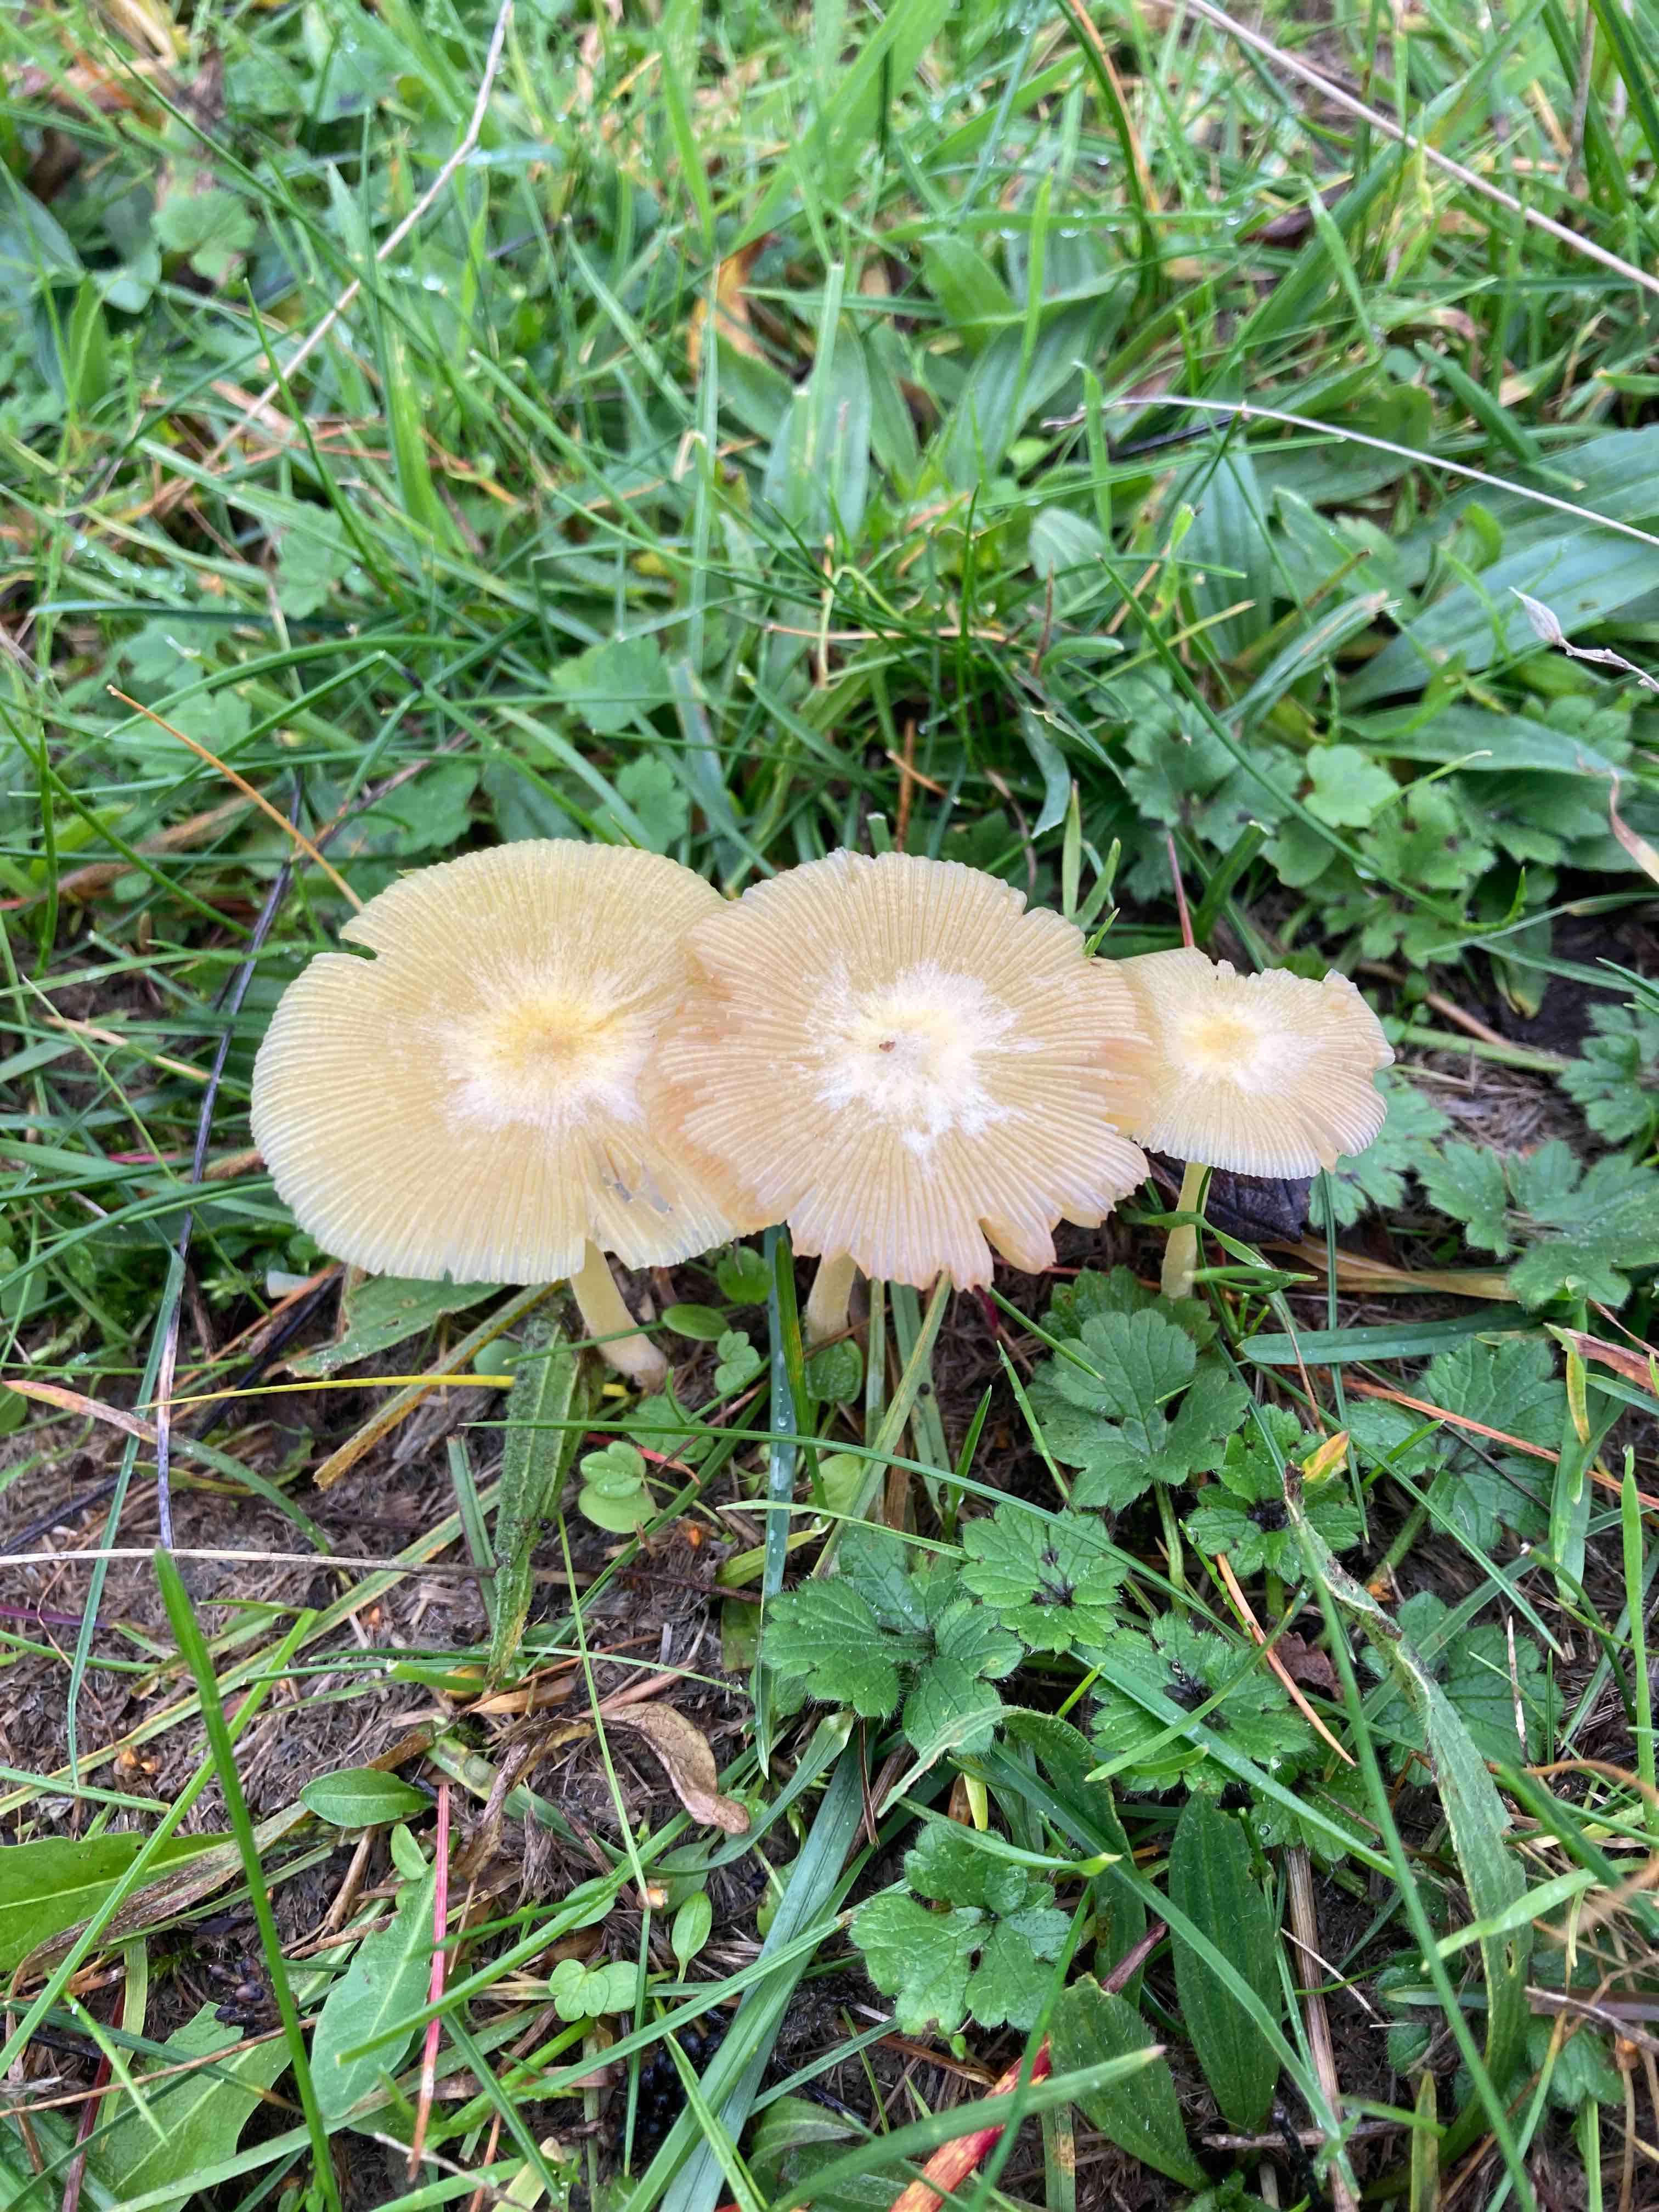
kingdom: Fungi
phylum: Basidiomycota
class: Agaricomycetes
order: Agaricales
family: Bolbitiaceae
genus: Bolbitius
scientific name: Bolbitius titubans
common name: almindelig gulhat
